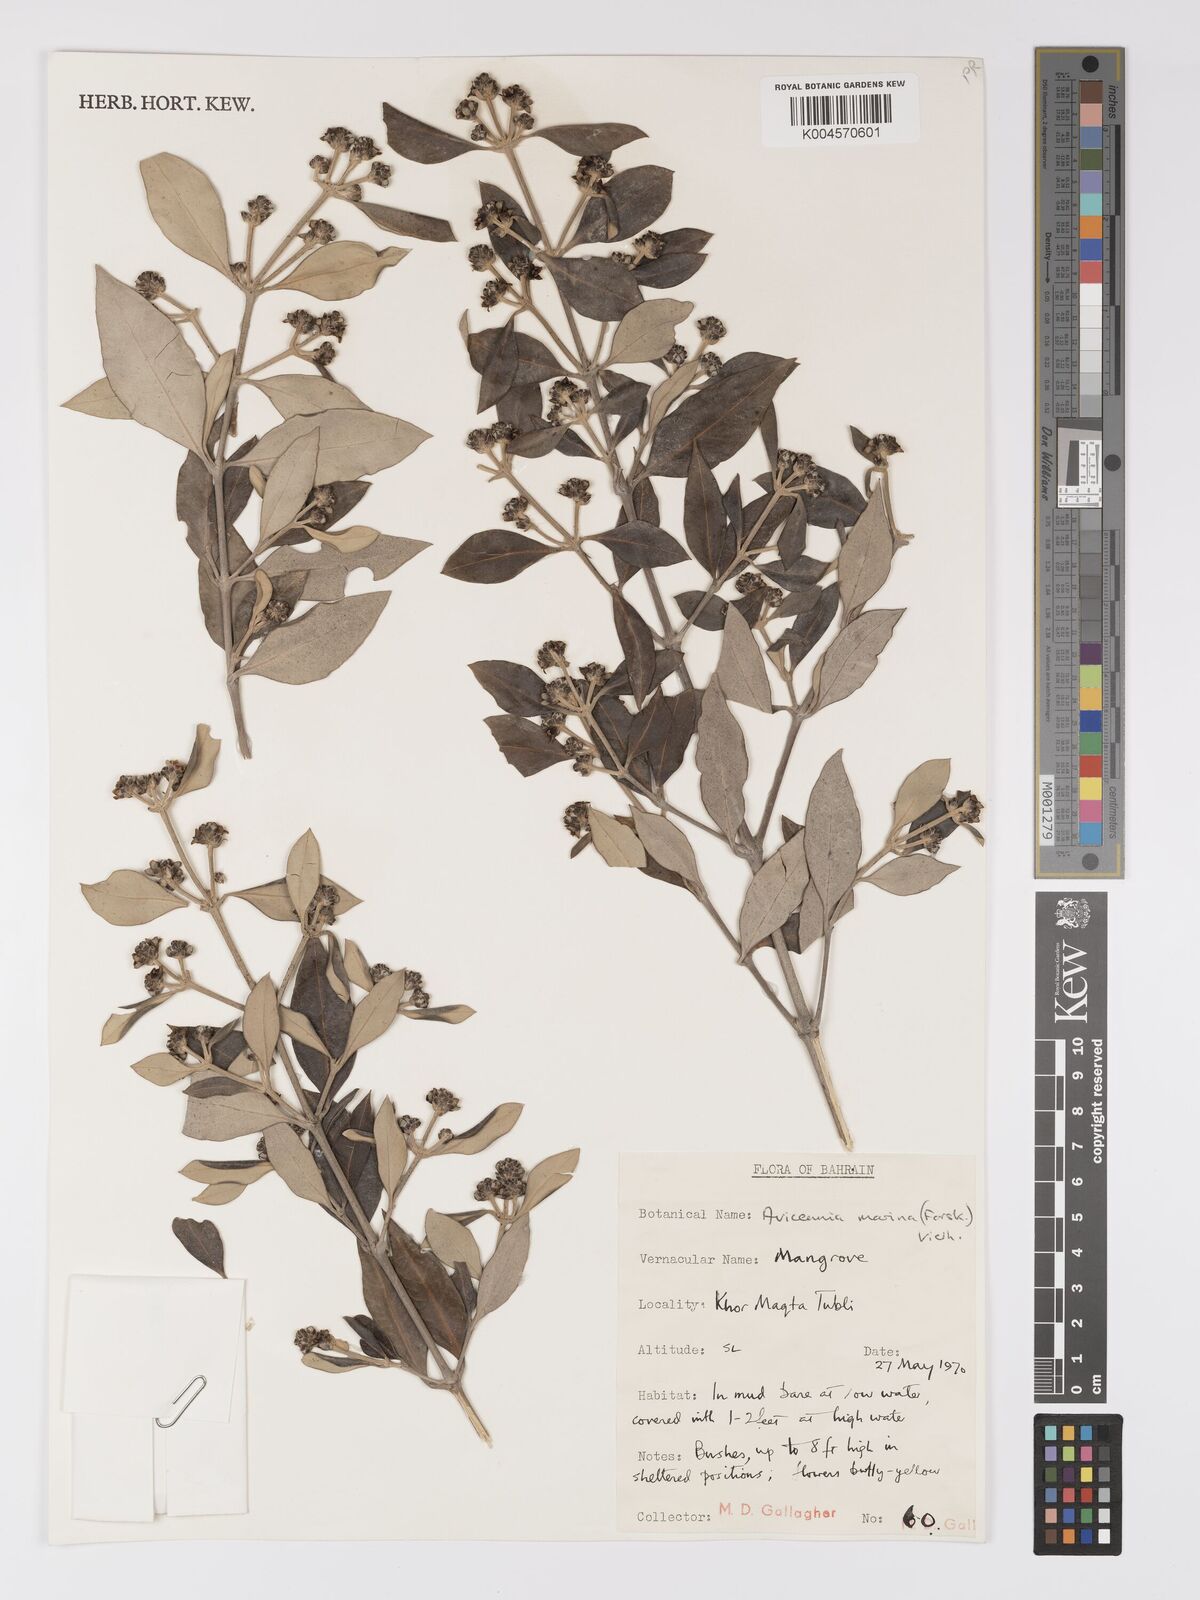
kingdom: Plantae
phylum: Tracheophyta
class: Magnoliopsida
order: Lamiales
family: Acanthaceae
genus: Avicennia
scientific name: Avicennia
